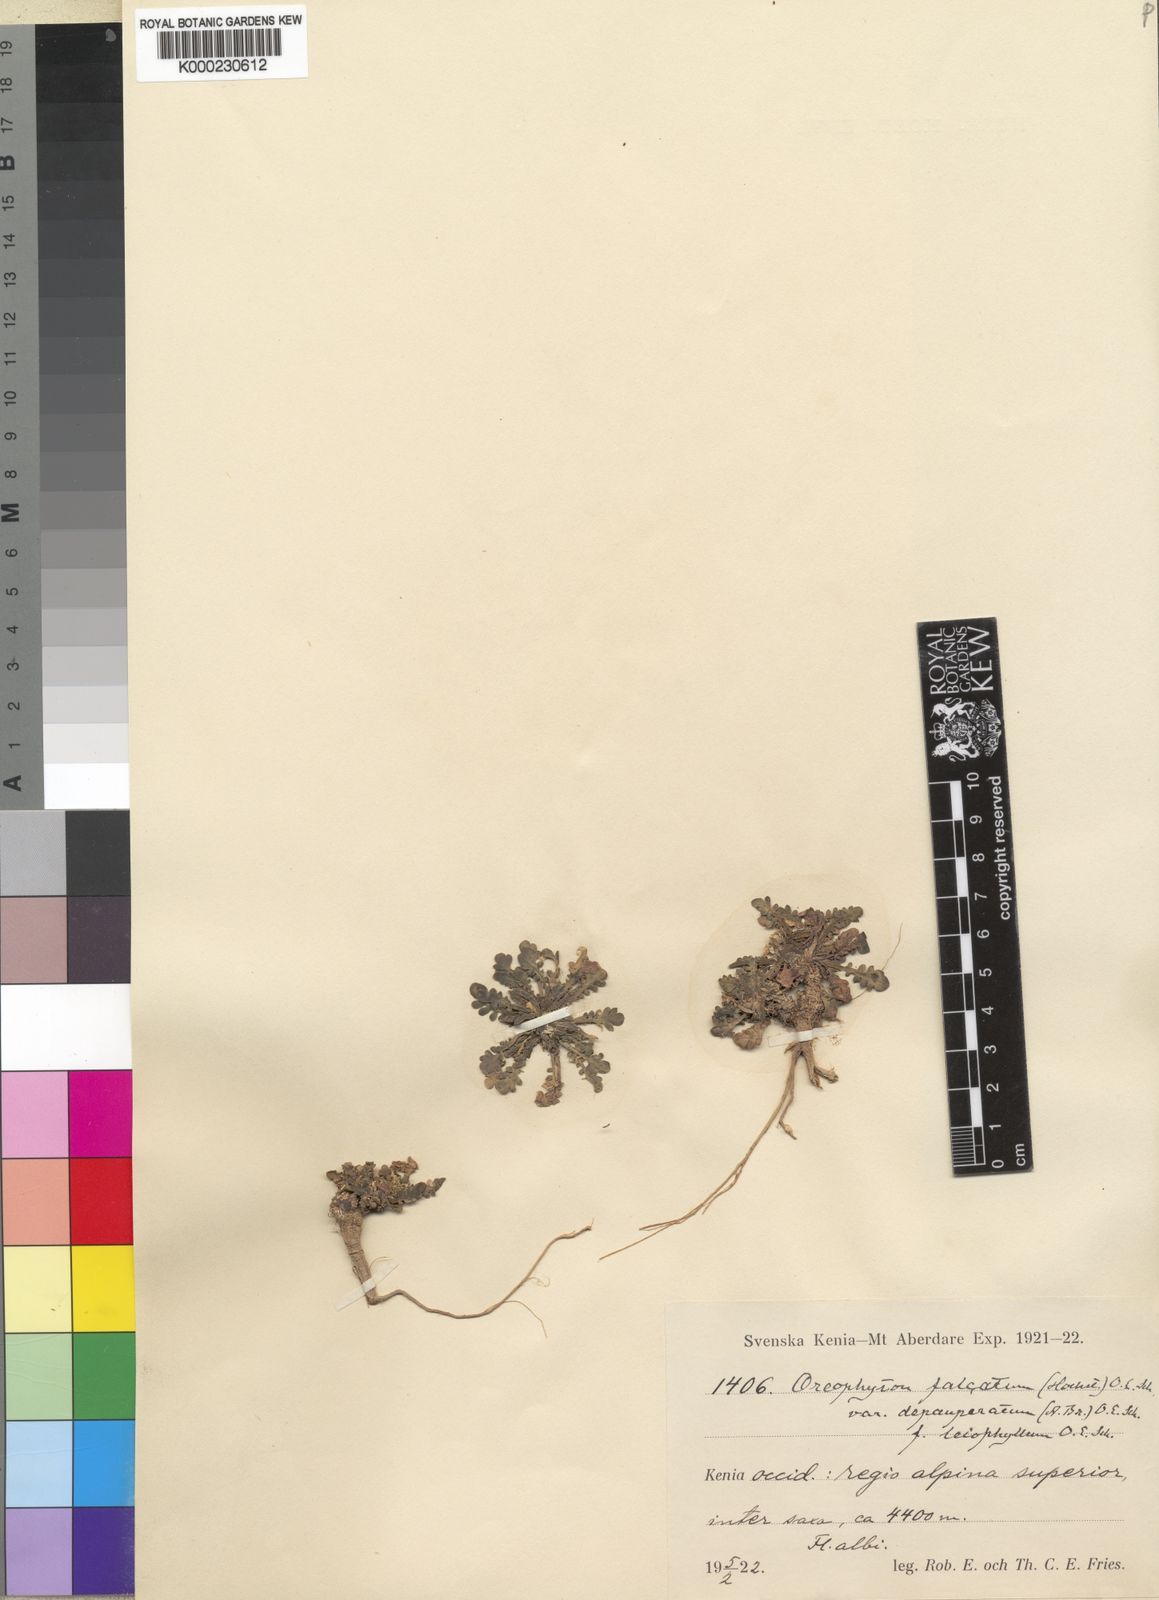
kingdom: Plantae
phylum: Tracheophyta
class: Magnoliopsida
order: Brassicales
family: Brassicaceae
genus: Oreophyton
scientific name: Oreophyton falcatum
